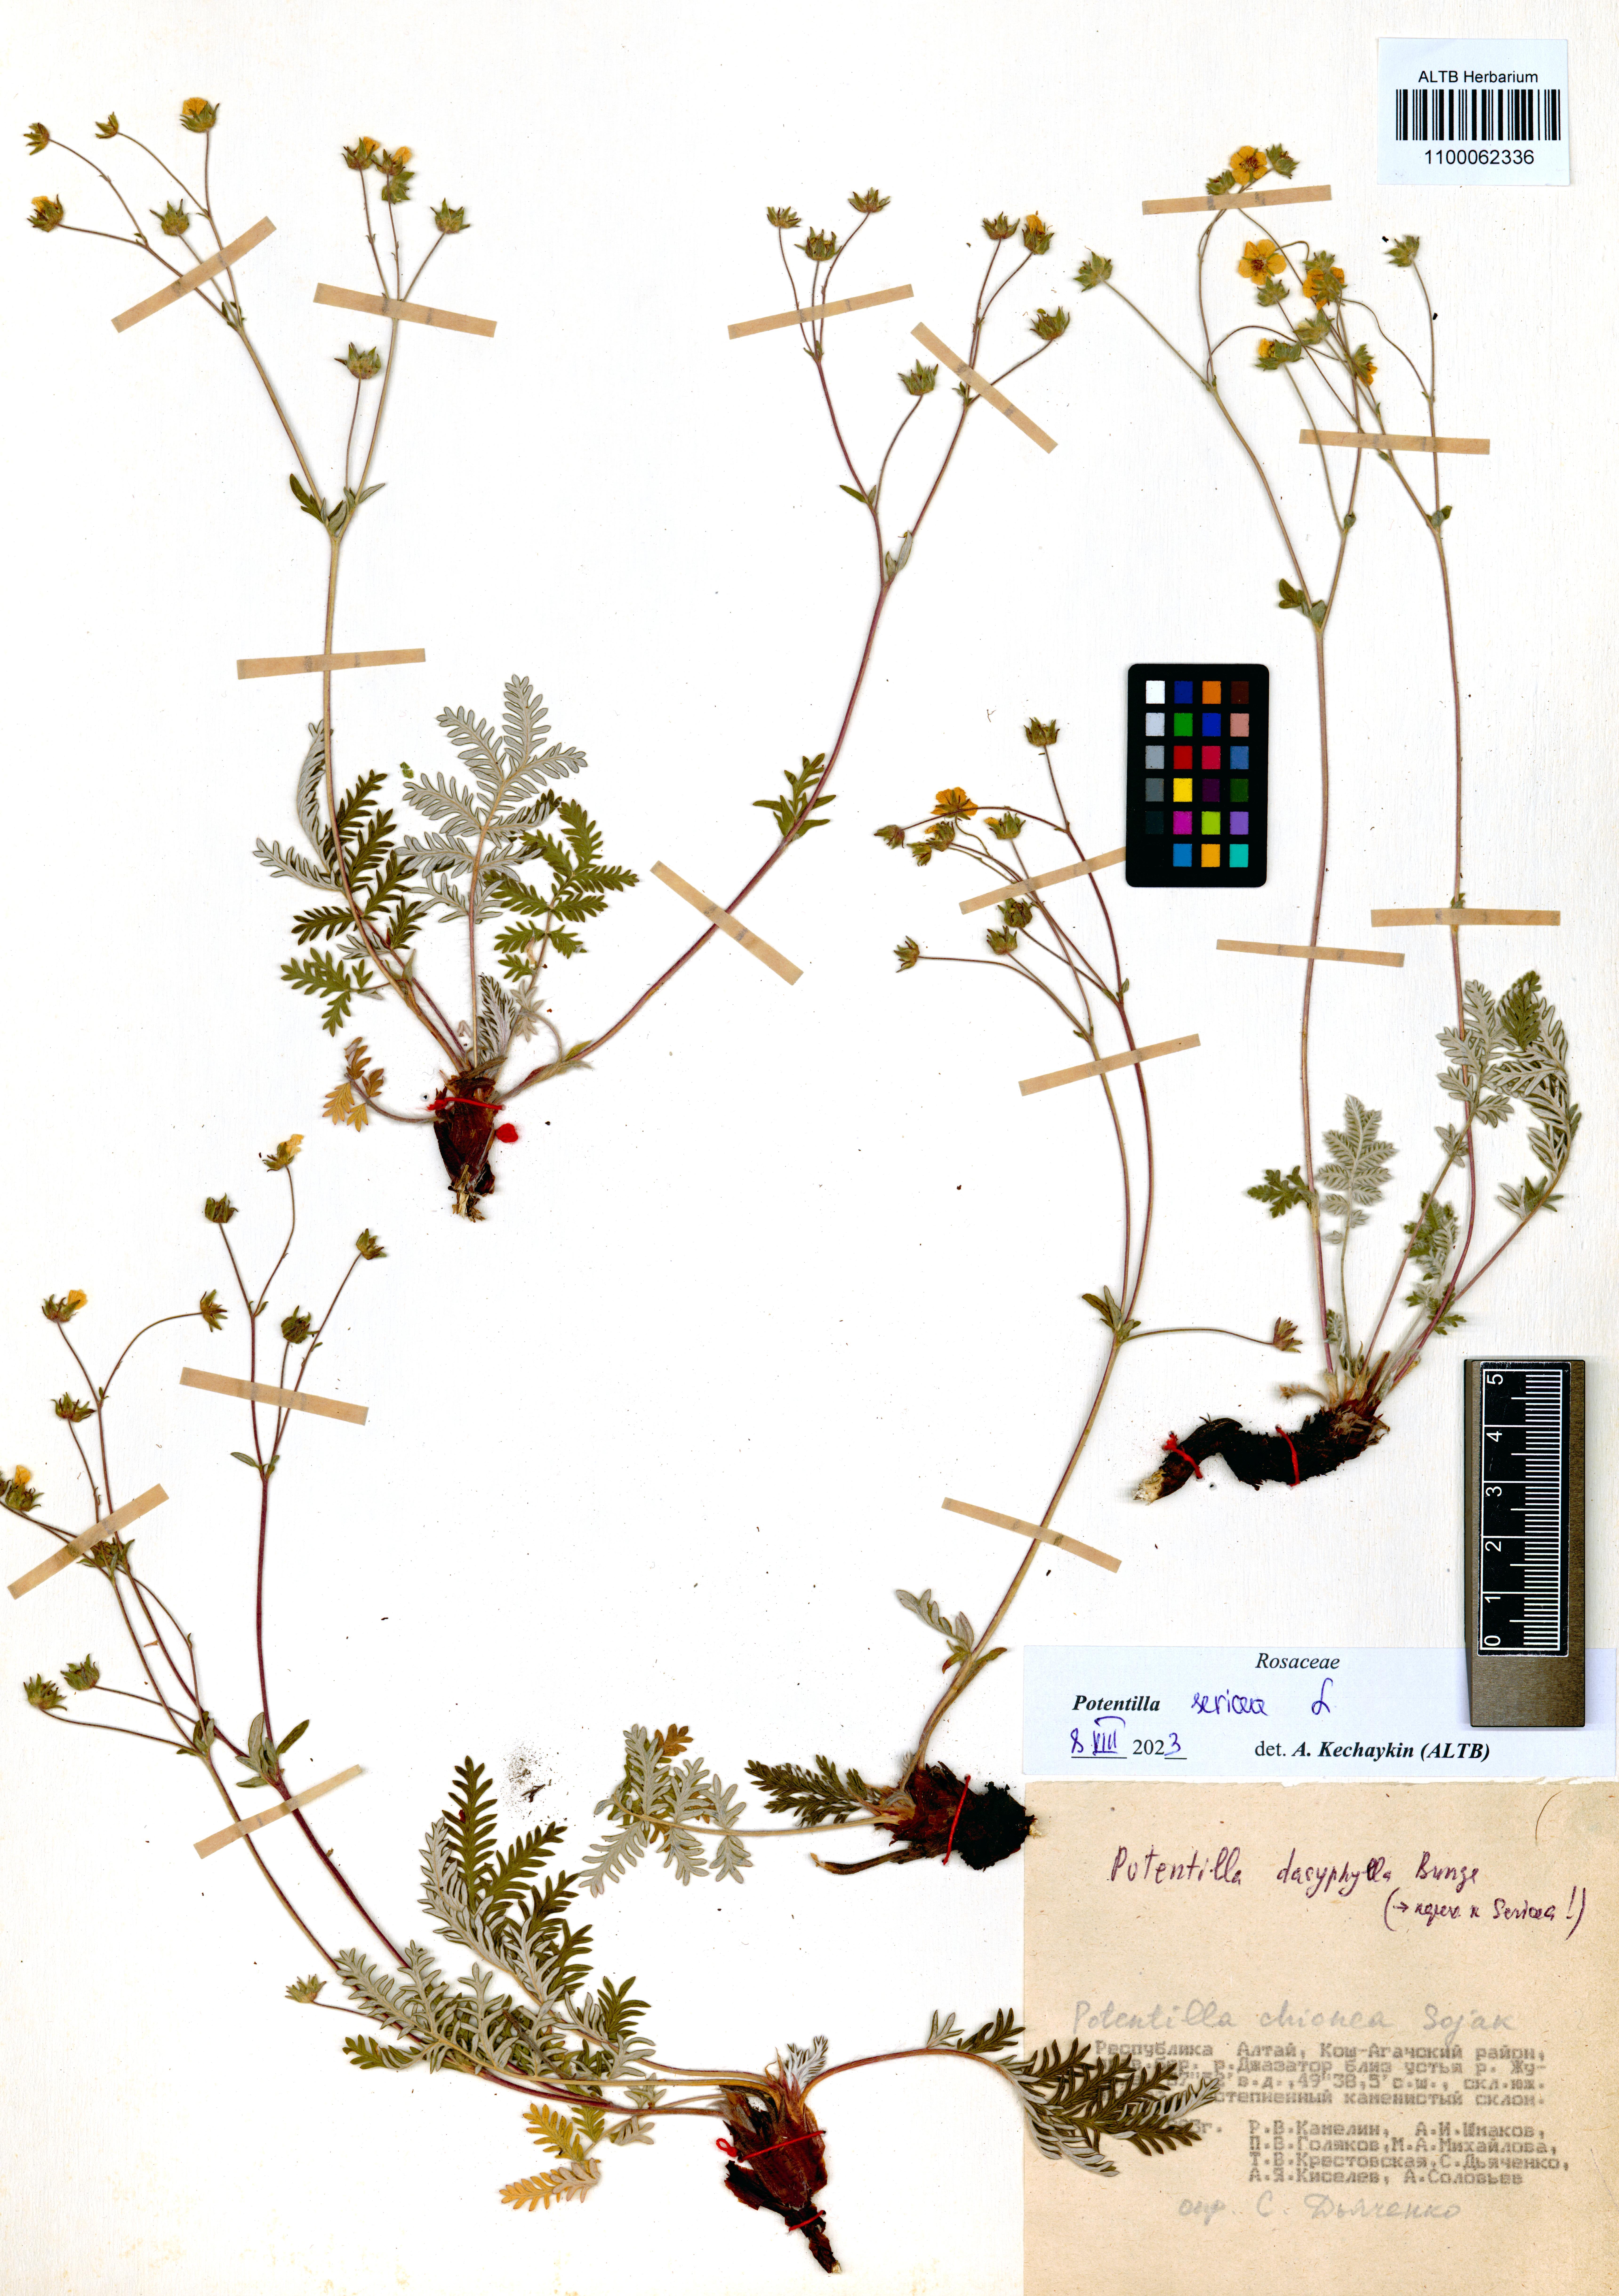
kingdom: Plantae
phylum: Tracheophyta
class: Magnoliopsida
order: Rosales
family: Rosaceae
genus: Potentilla
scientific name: Potentilla sericea
